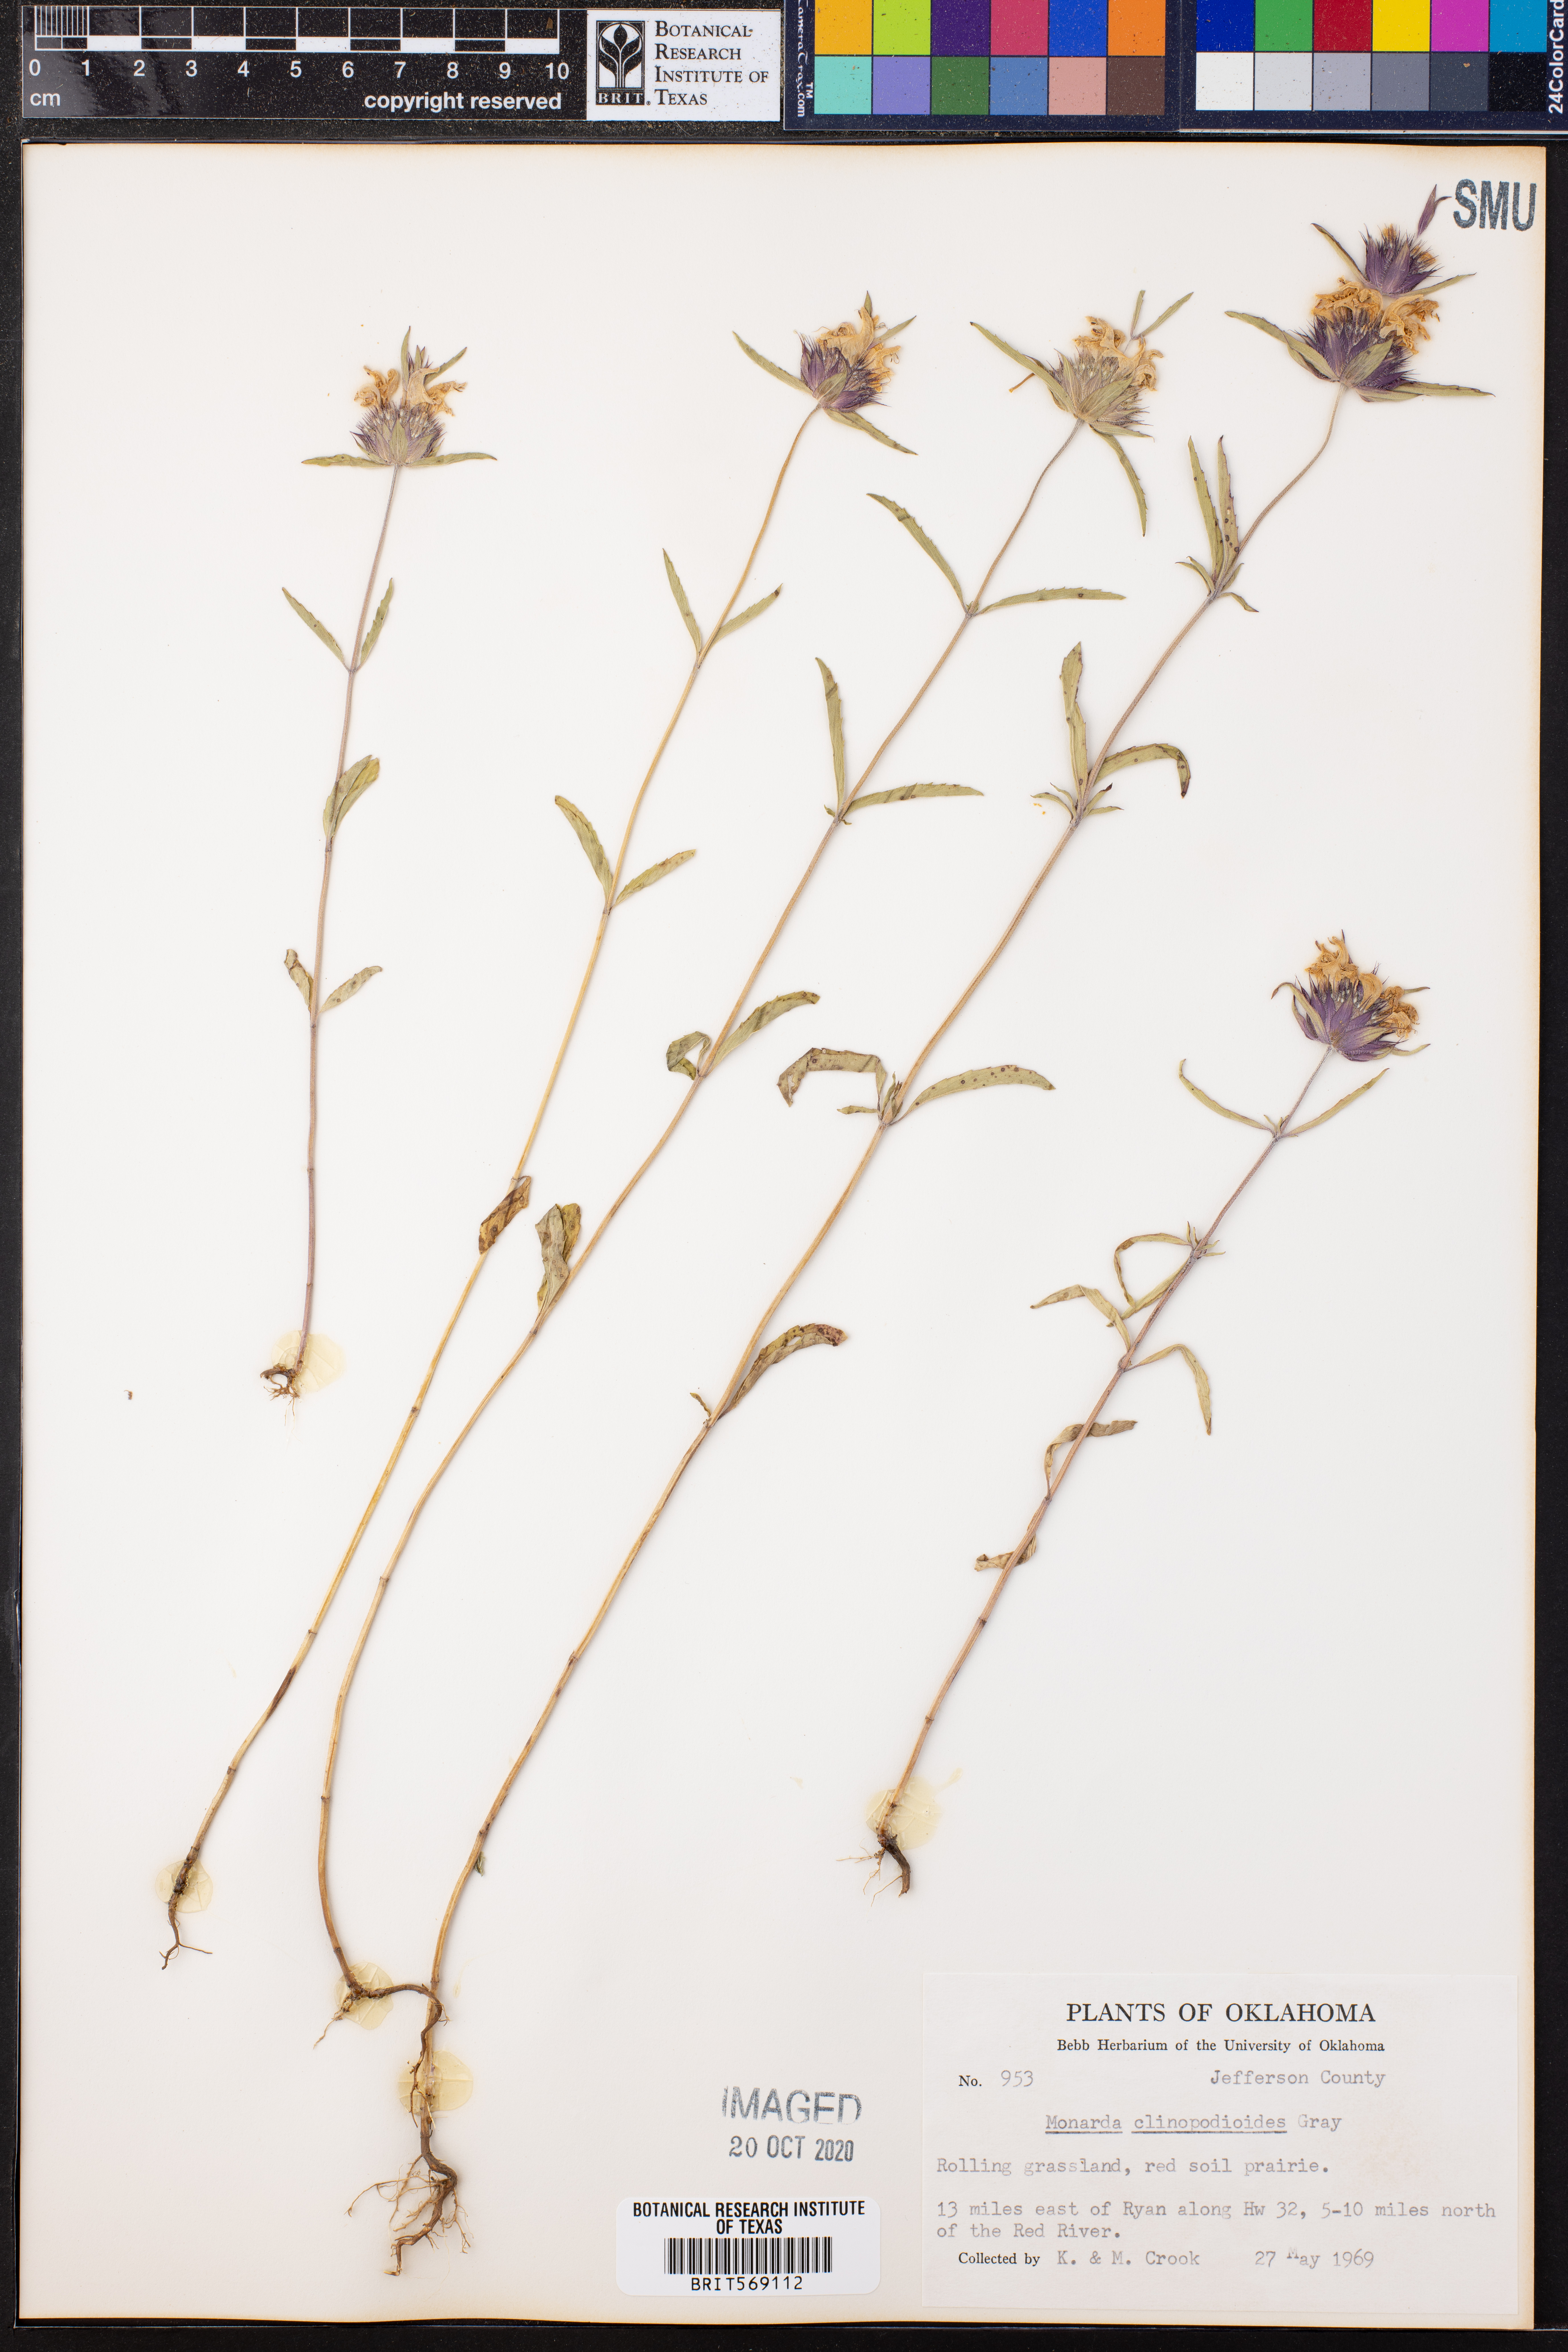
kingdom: Plantae
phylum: Tracheophyta
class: Magnoliopsida
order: Lamiales
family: Lamiaceae
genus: Monarda
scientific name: Monarda clinopodioides
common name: Basil beebalm
